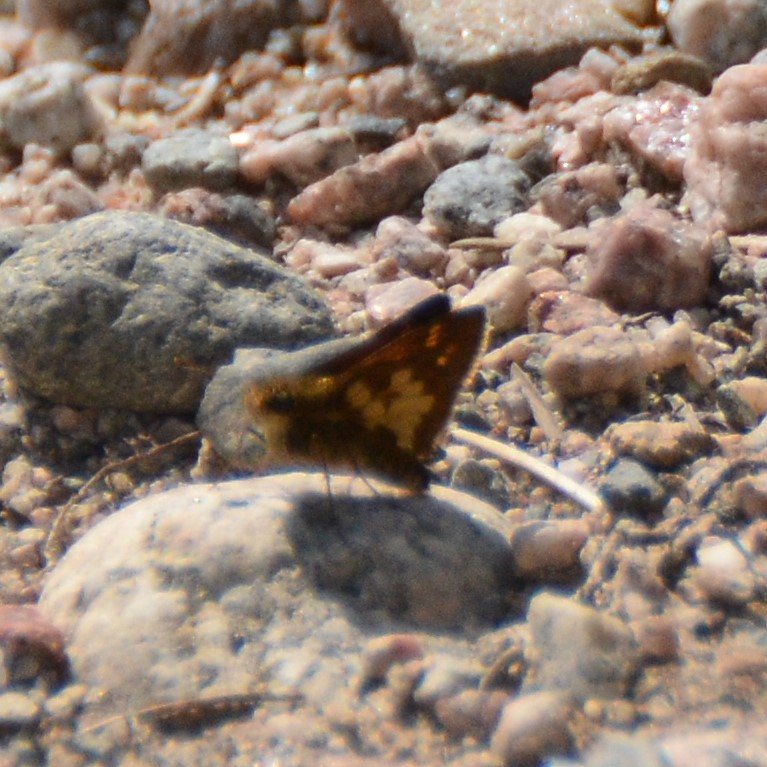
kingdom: Animalia
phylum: Arthropoda
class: Insecta
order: Lepidoptera
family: Hesperiidae
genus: Polites
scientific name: Polites coras
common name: Peck's Skipper
